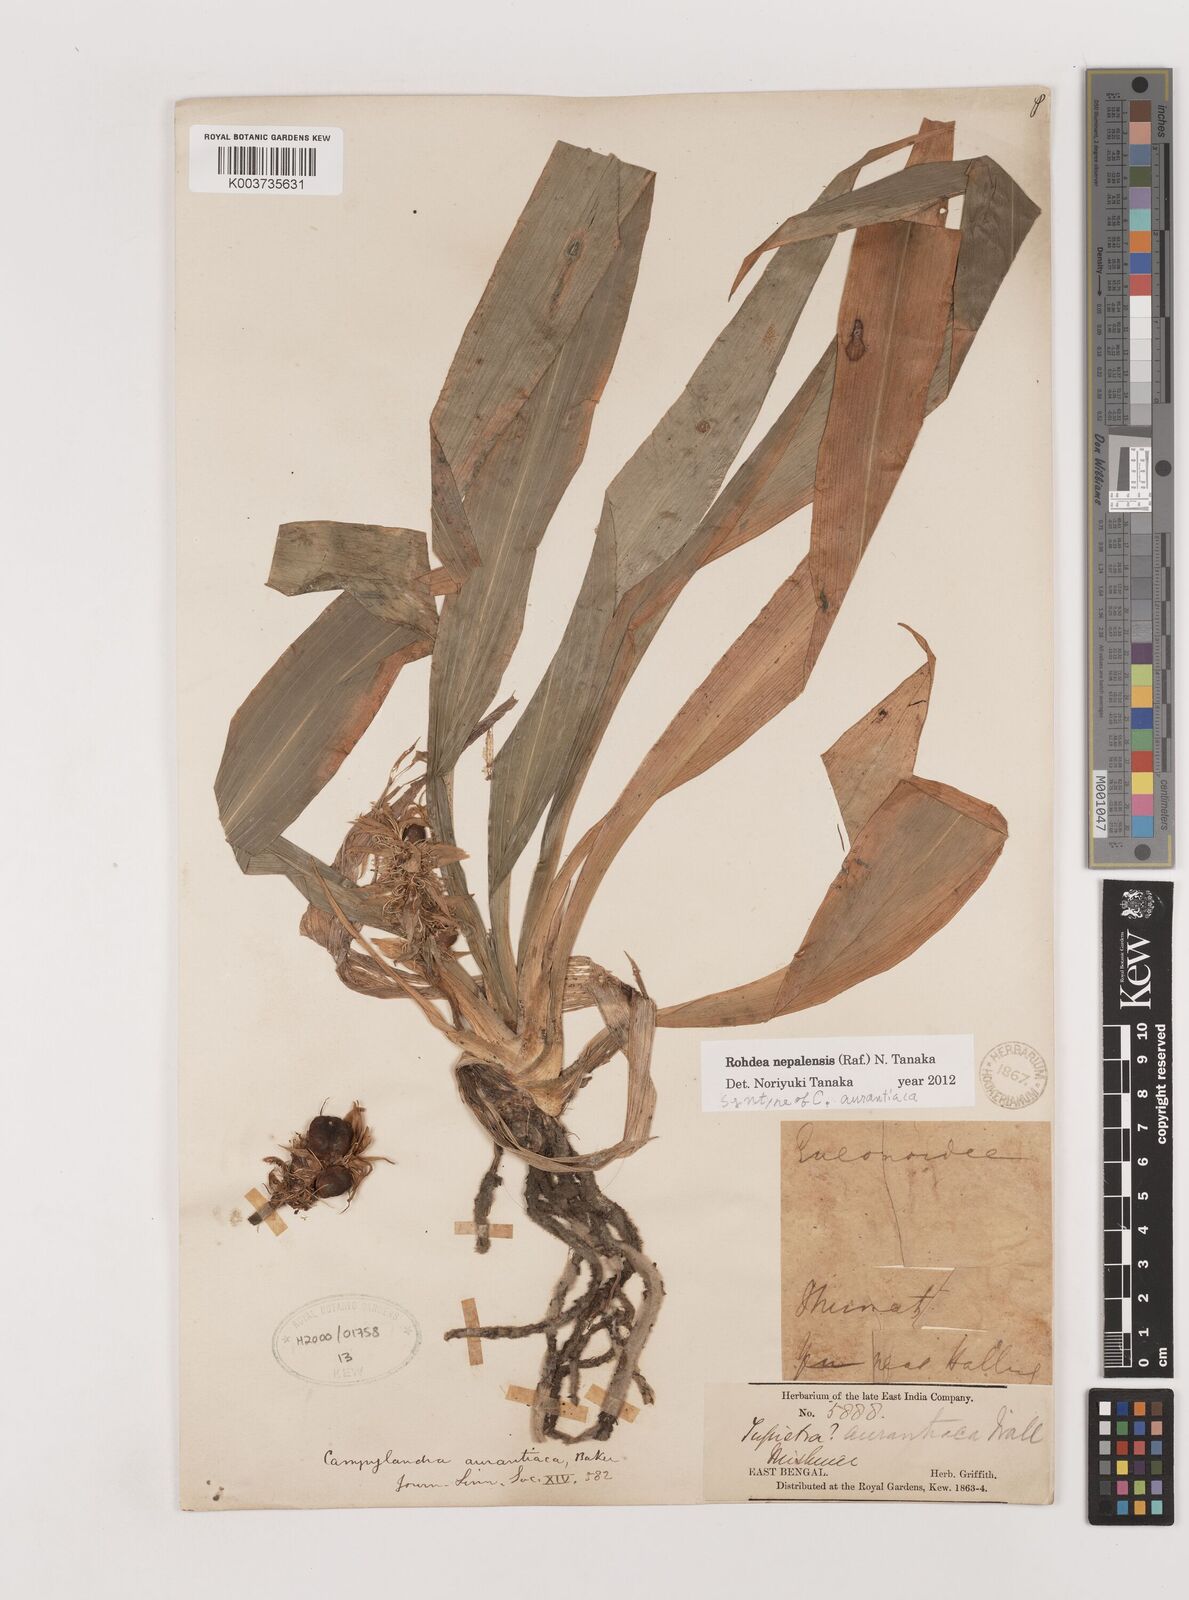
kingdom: Plantae
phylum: Tracheophyta
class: Liliopsida
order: Asparagales
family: Asparagaceae
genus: Rohdea
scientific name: Rohdea nepalensis
